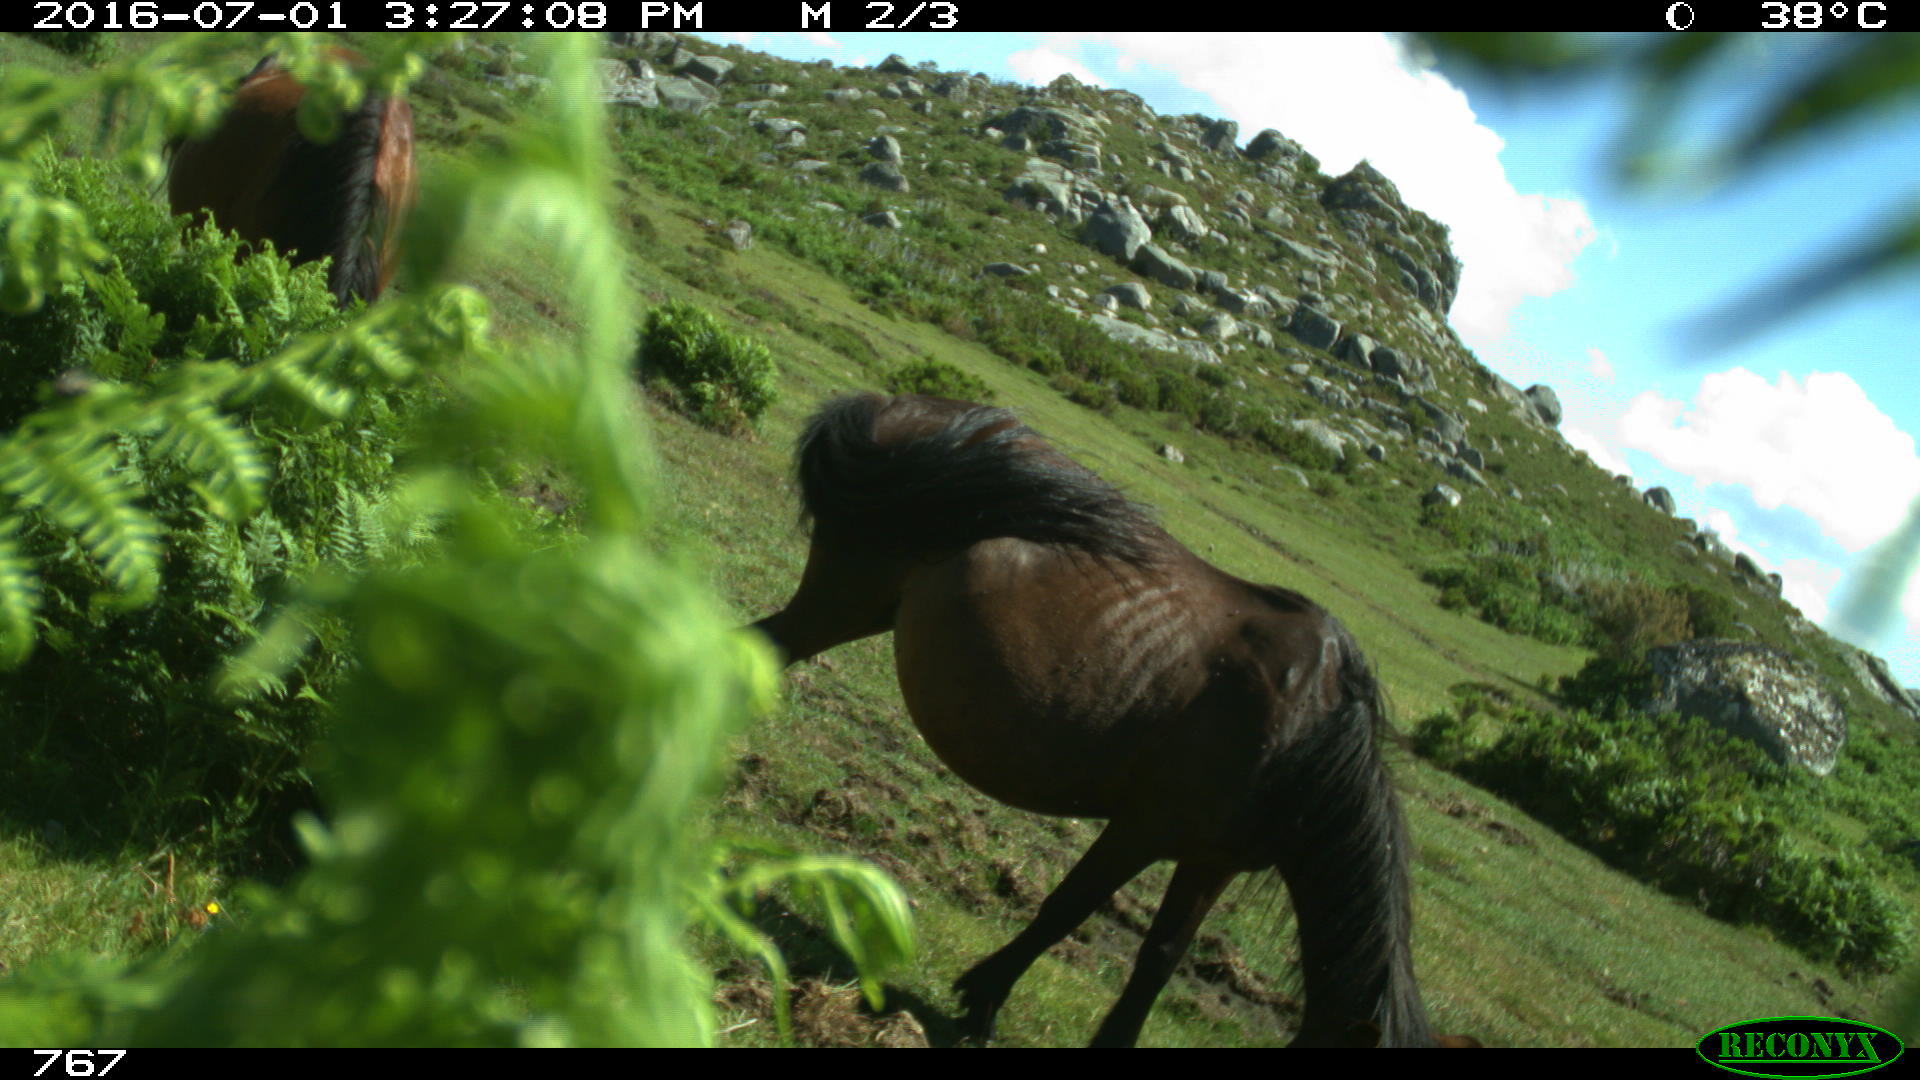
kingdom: Animalia
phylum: Chordata
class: Mammalia
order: Perissodactyla
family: Equidae
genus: Equus
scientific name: Equus caballus
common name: Horse
